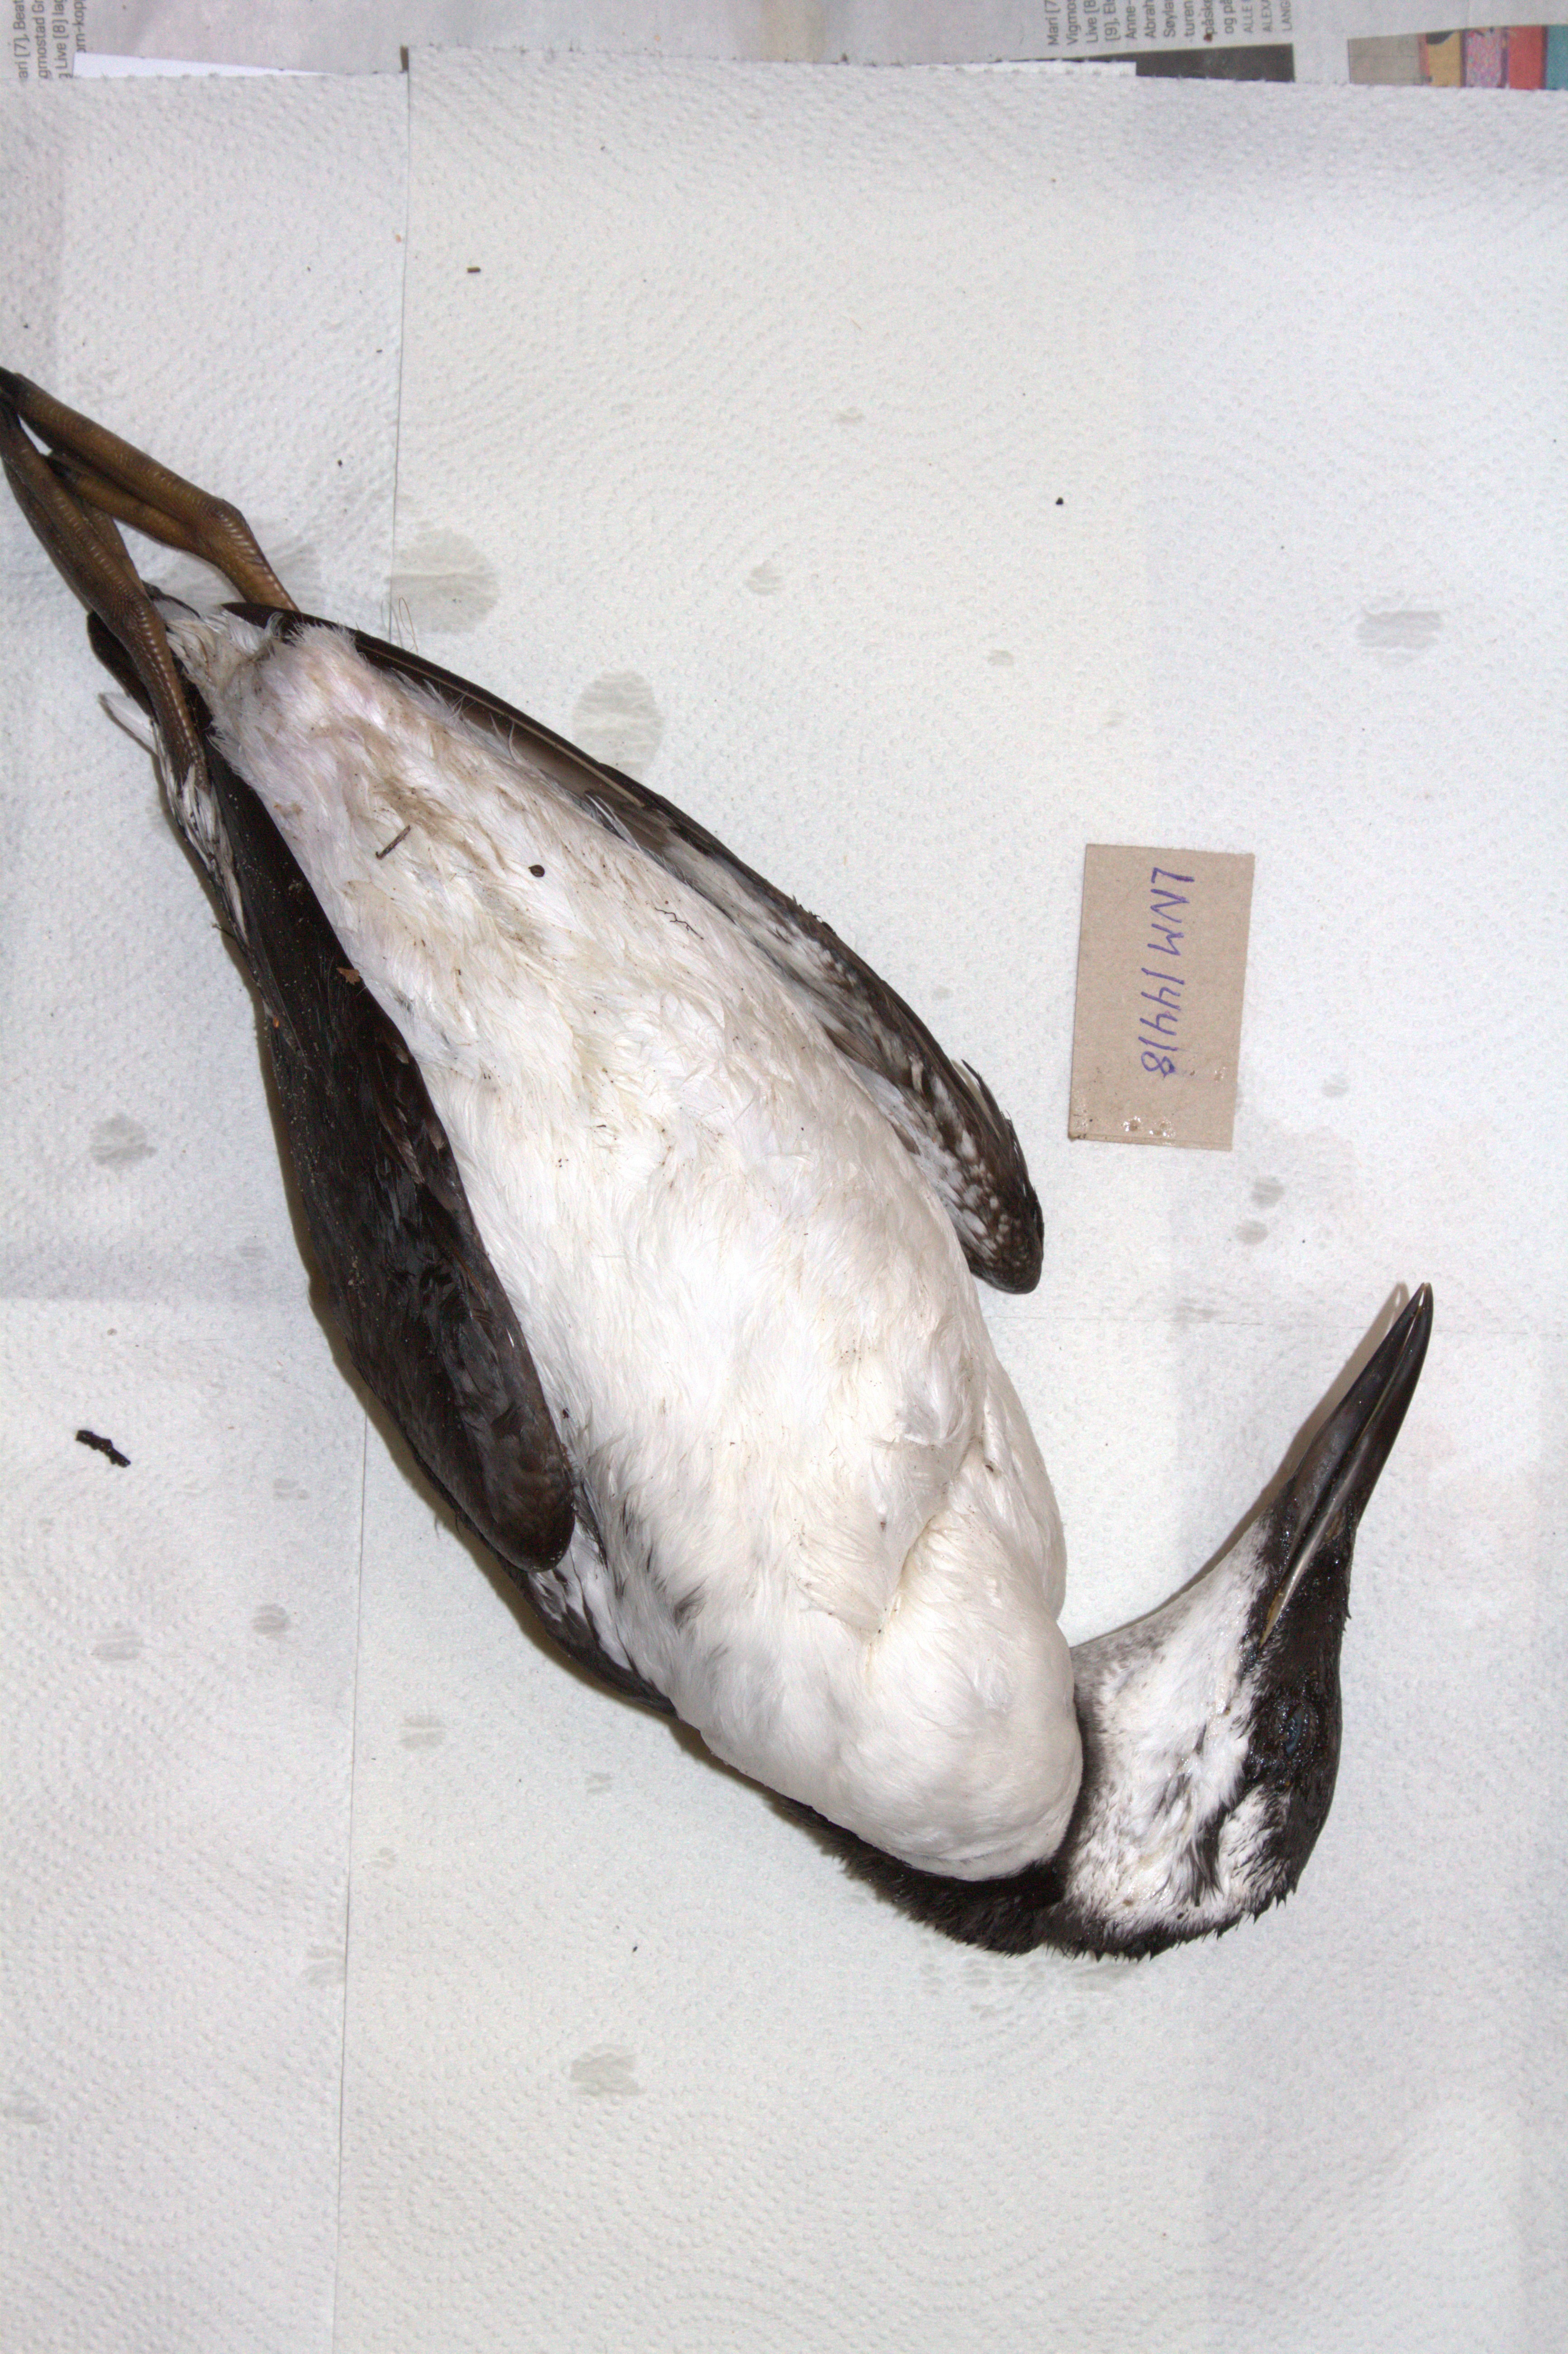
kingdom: Animalia
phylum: Chordata
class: Aves
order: Charadriiformes
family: Alcidae
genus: Uria
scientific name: Uria aalge
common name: Common murre
